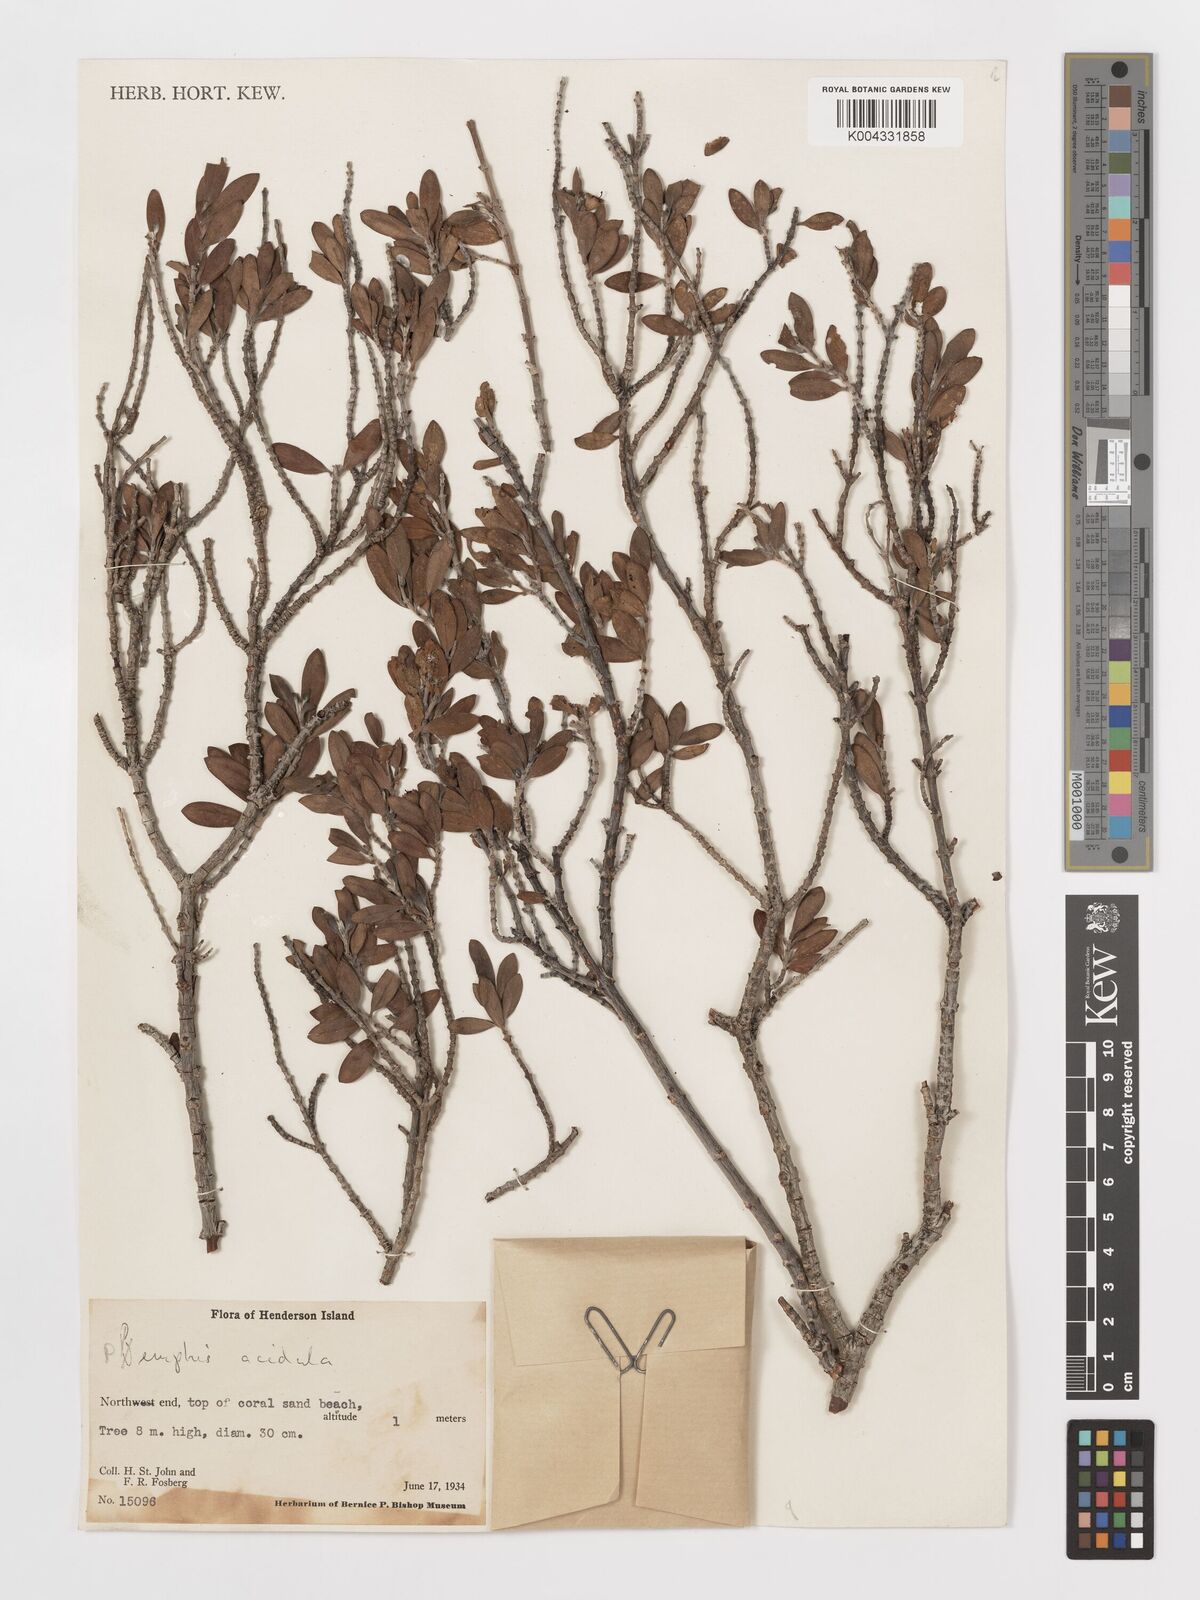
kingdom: Plantae
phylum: Tracheophyta
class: Magnoliopsida
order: Myrtales
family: Lythraceae
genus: Pemphis
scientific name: Pemphis acidula
